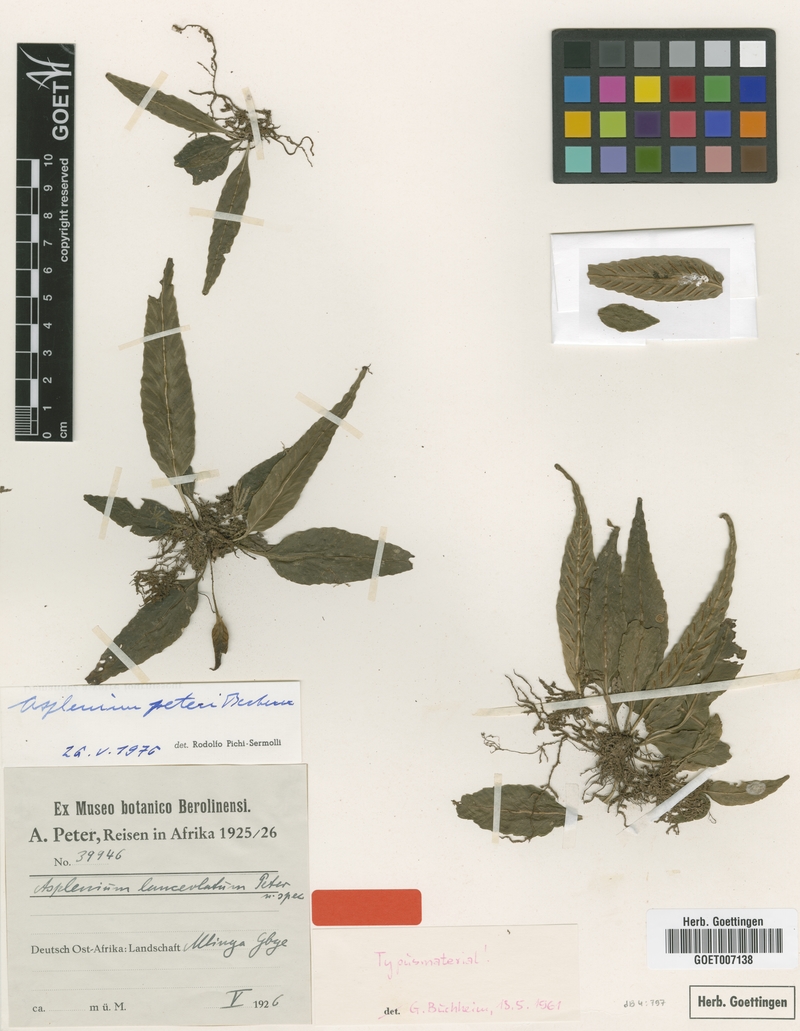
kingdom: Plantae
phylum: Tracheophyta
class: Polypodiopsida
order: Polypodiales
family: Aspleniaceae
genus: Asplenium
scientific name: Asplenium peteri
